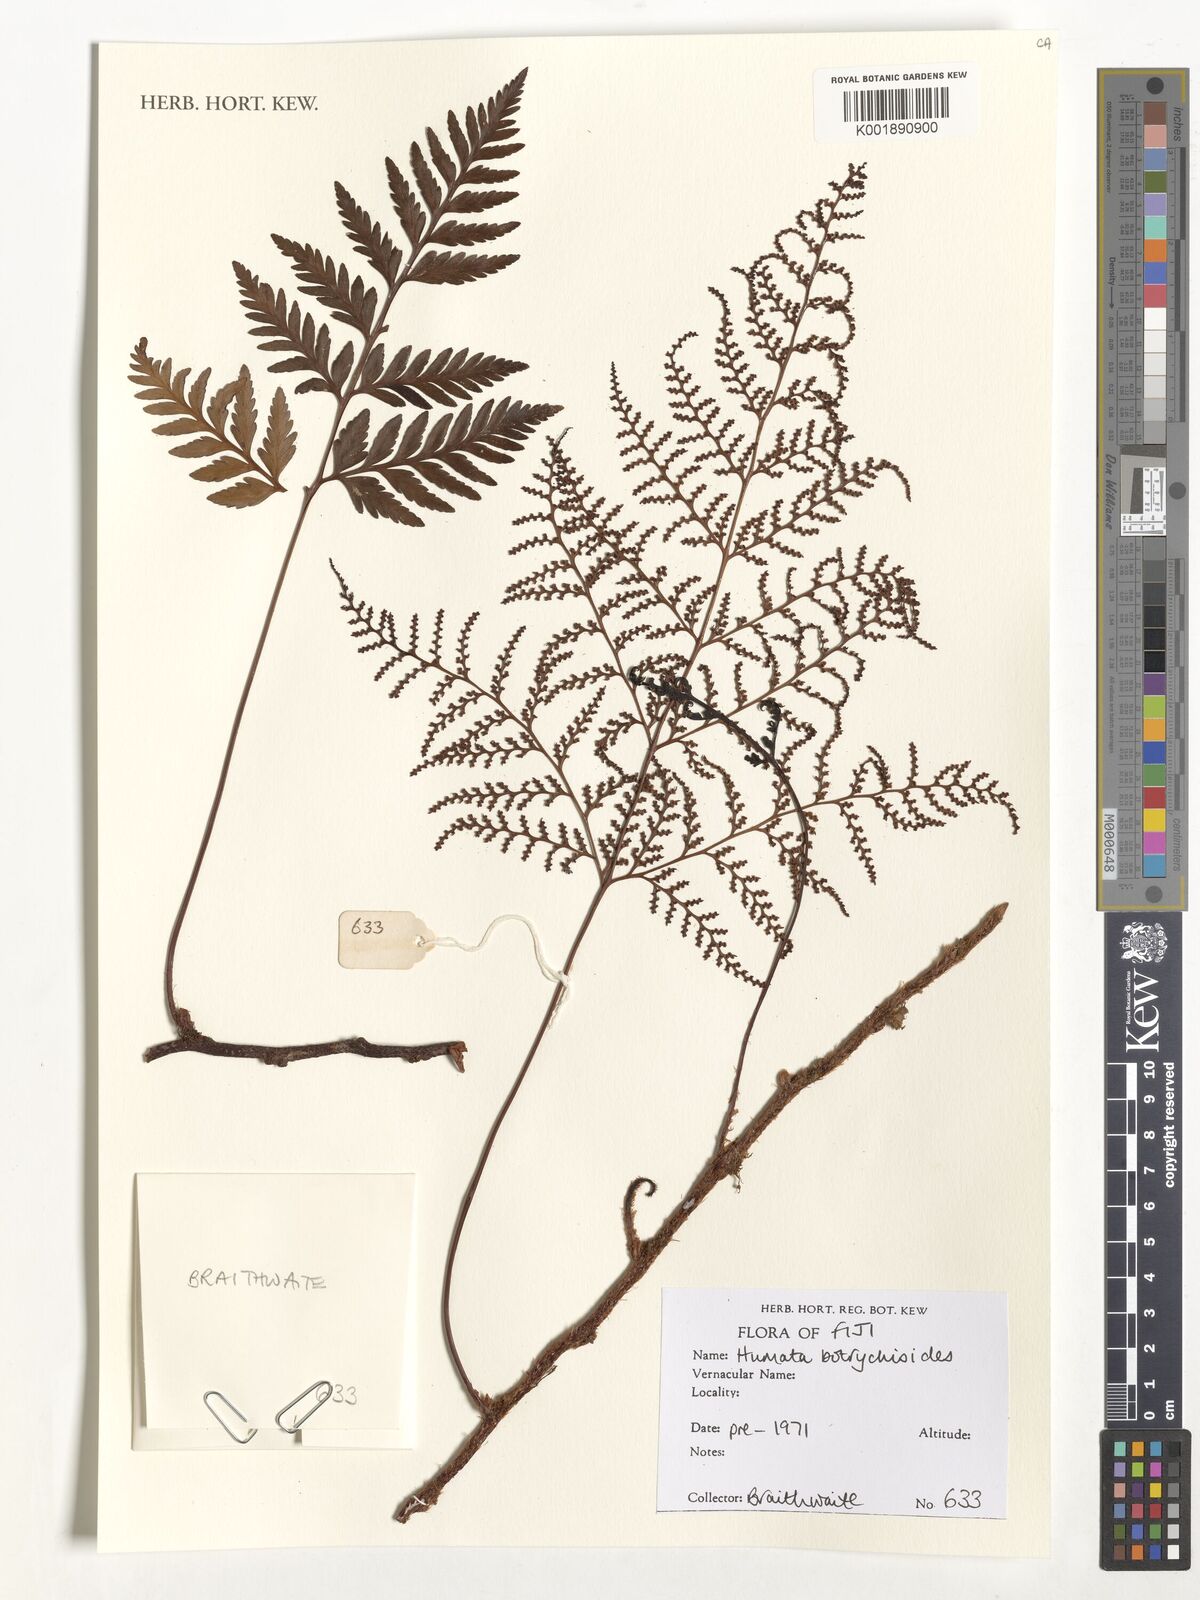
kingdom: Plantae
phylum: Tracheophyta
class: Polypodiopsida
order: Polypodiales
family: Davalliaceae
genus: Davallia
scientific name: Davallia repens
